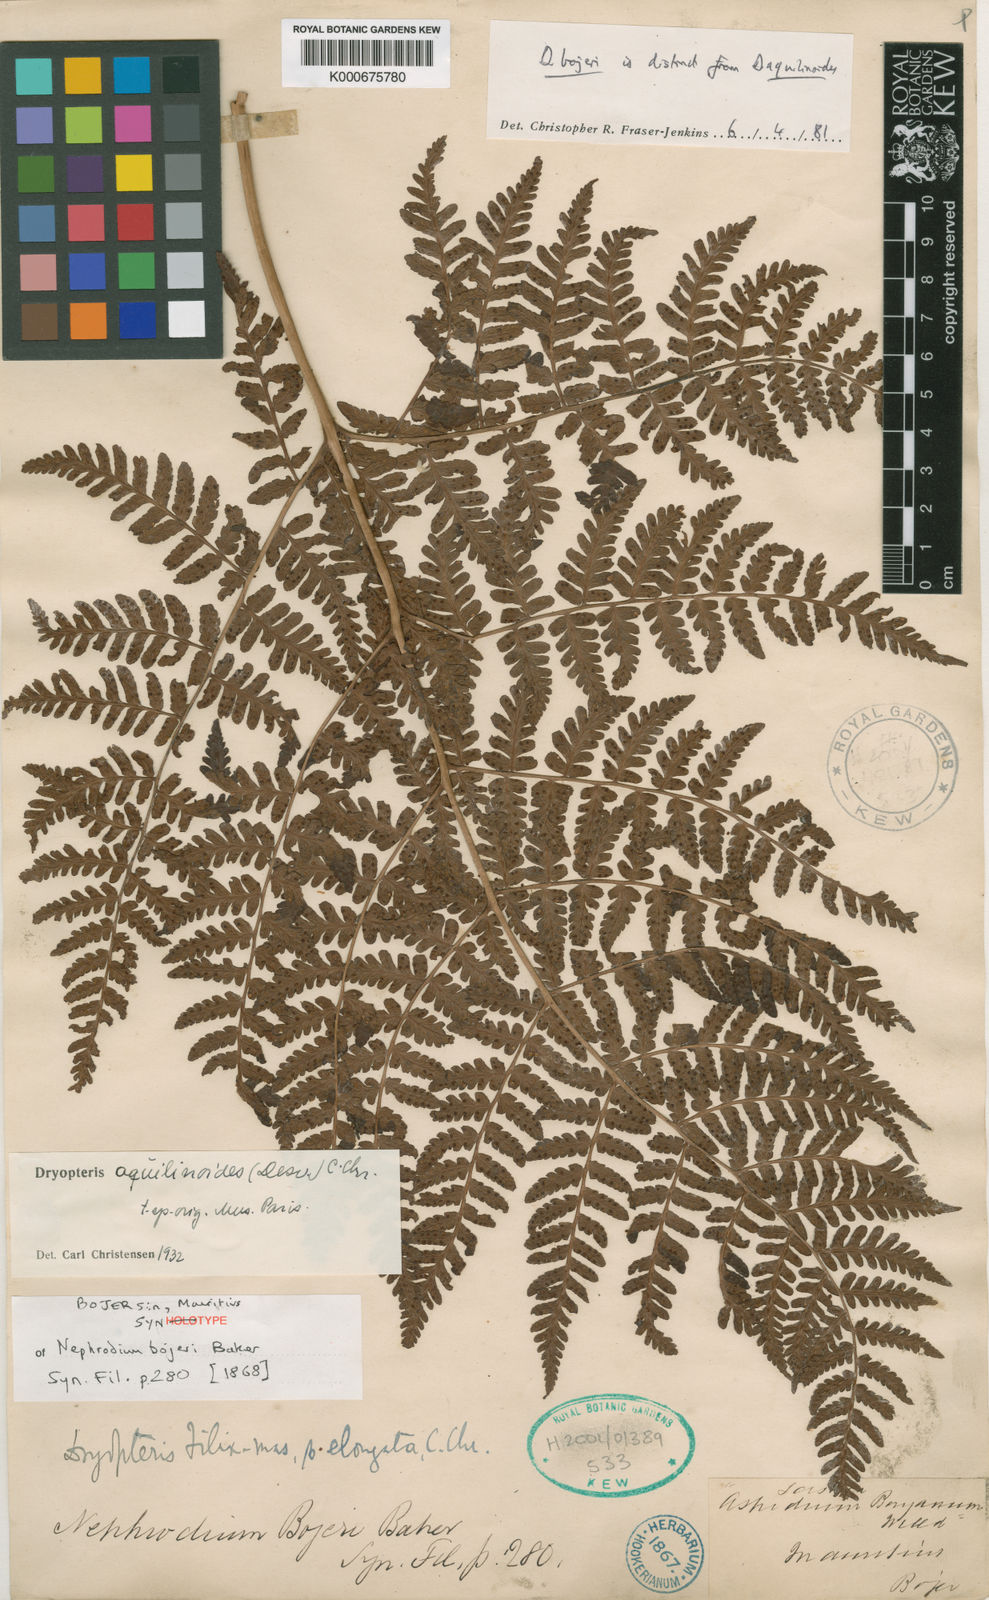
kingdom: Plantae
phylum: Tracheophyta
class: Polypodiopsida
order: Polypodiales
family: Dryopteridaceae
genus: Dryopteris
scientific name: Dryopteris aquilinoides
